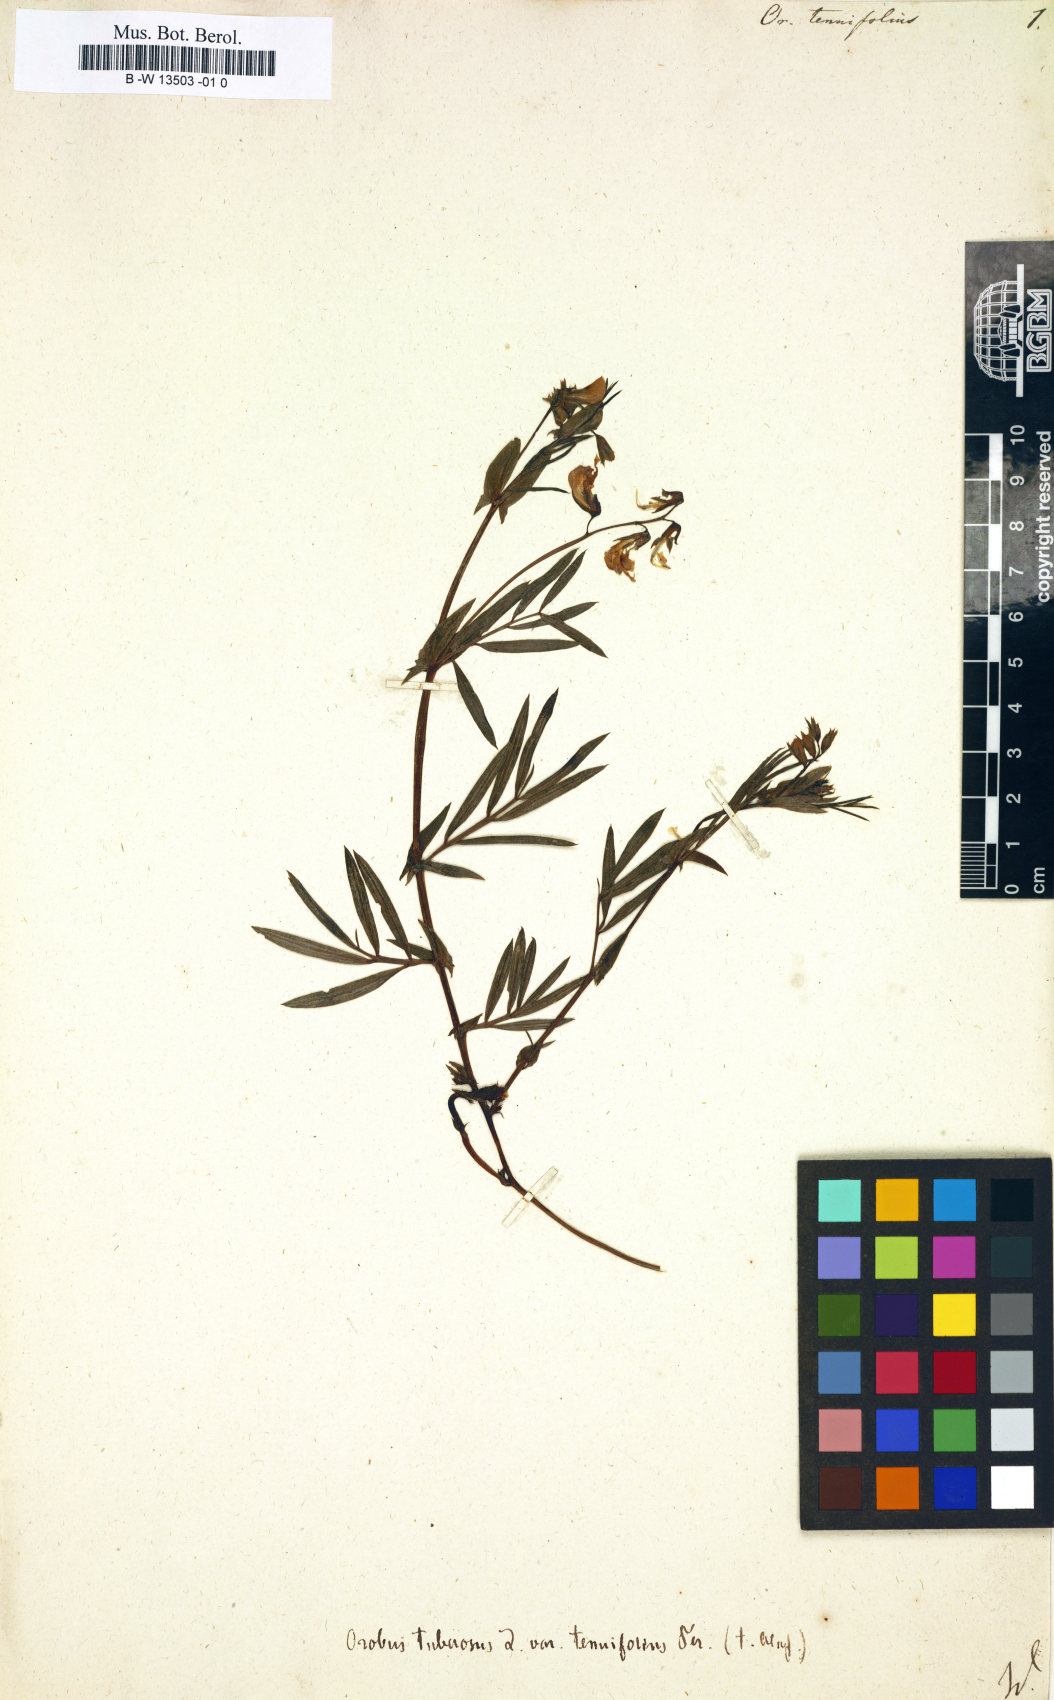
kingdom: Plantae
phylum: Tracheophyta
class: Magnoliopsida
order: Fabales
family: Fabaceae
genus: Lathyrus
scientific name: Lathyrus
